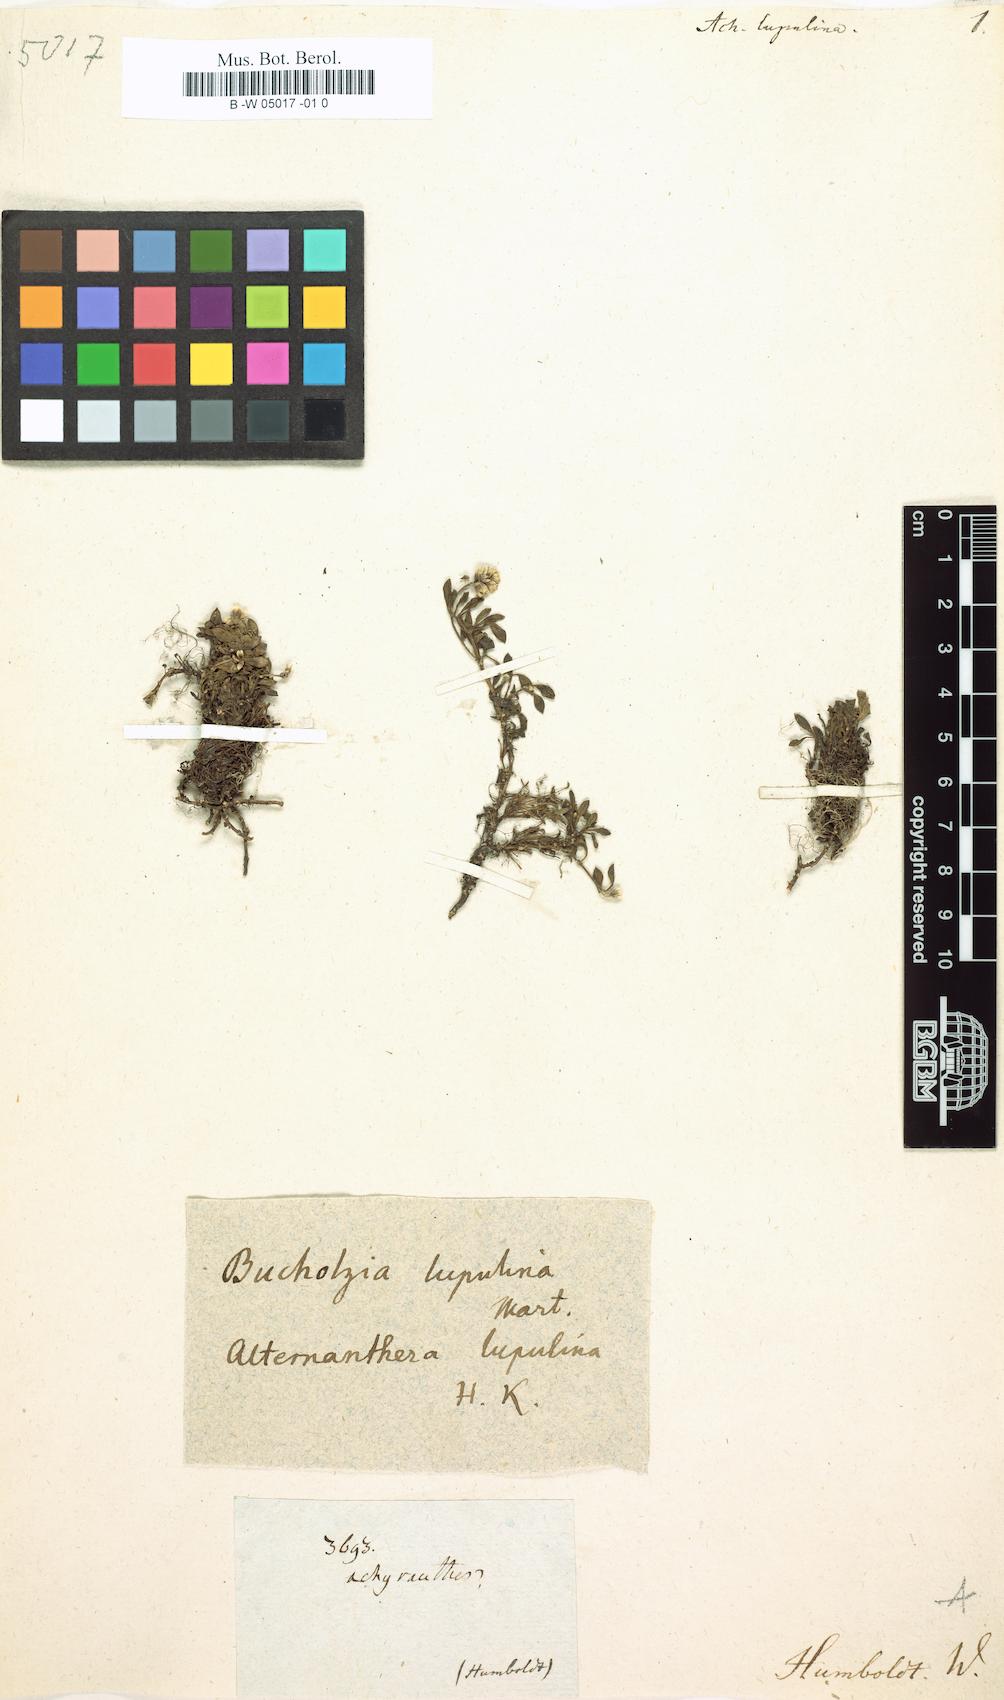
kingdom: Plantae
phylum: Tracheophyta
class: Magnoliopsida
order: Caryophyllales
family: Amaranthaceae
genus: Alternanthera
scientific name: Alternanthera lupulina
